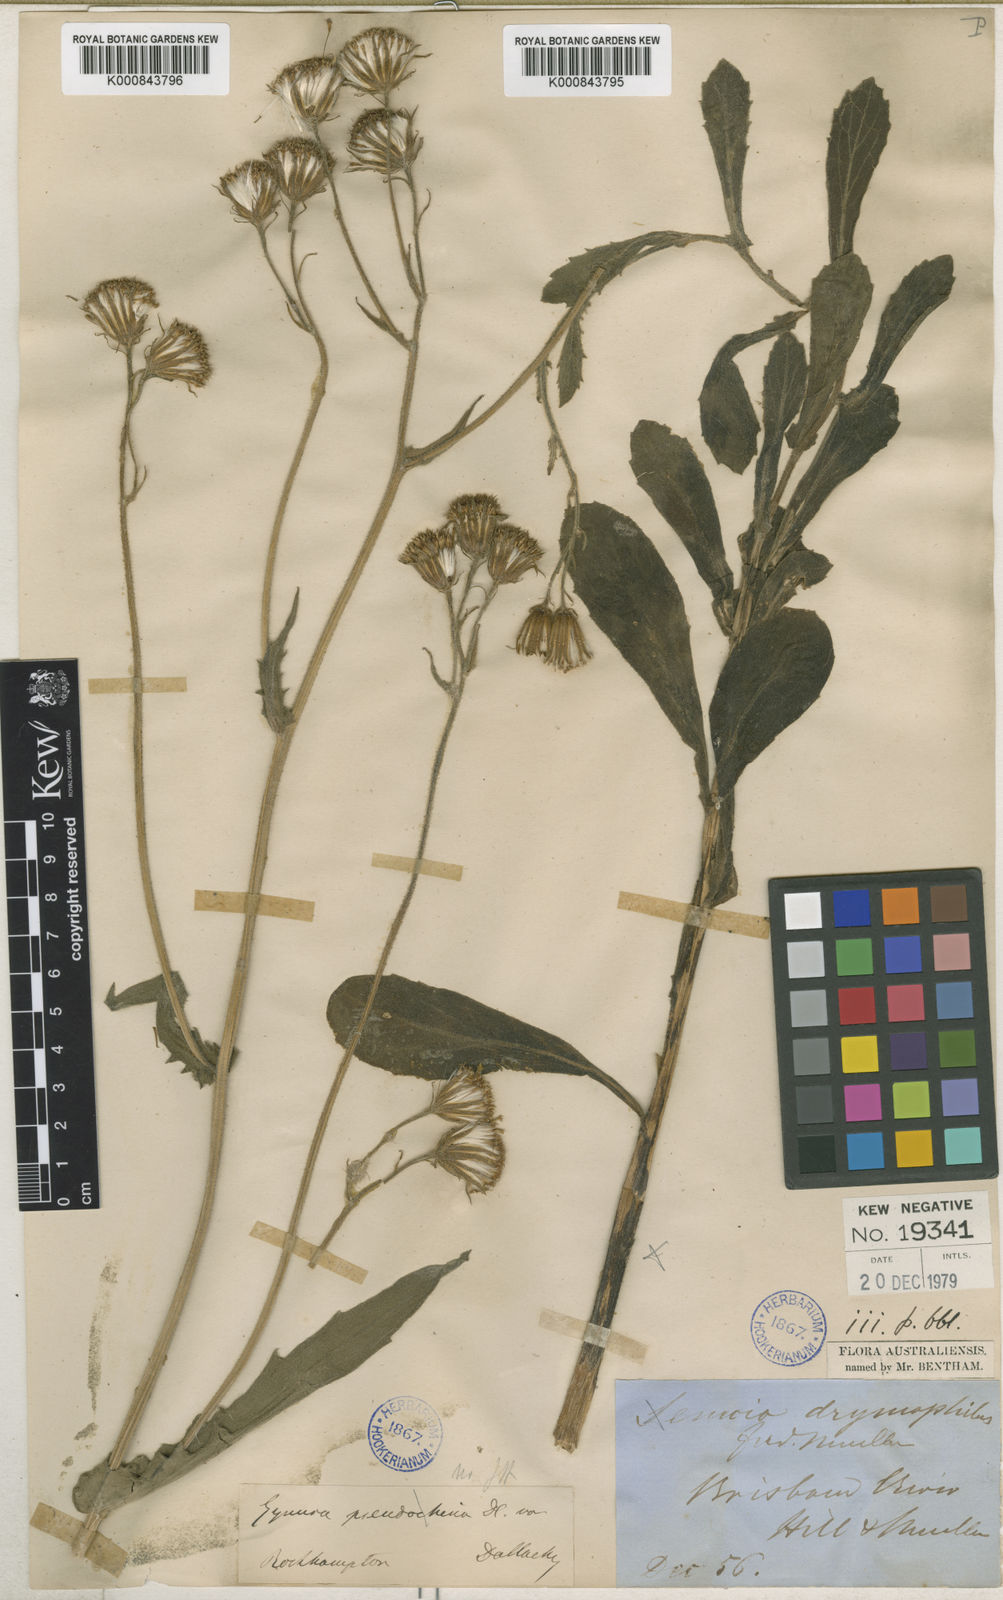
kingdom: Plantae
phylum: Tracheophyta
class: Magnoliopsida
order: Asterales
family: Asteraceae
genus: Gynura
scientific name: Gynura
